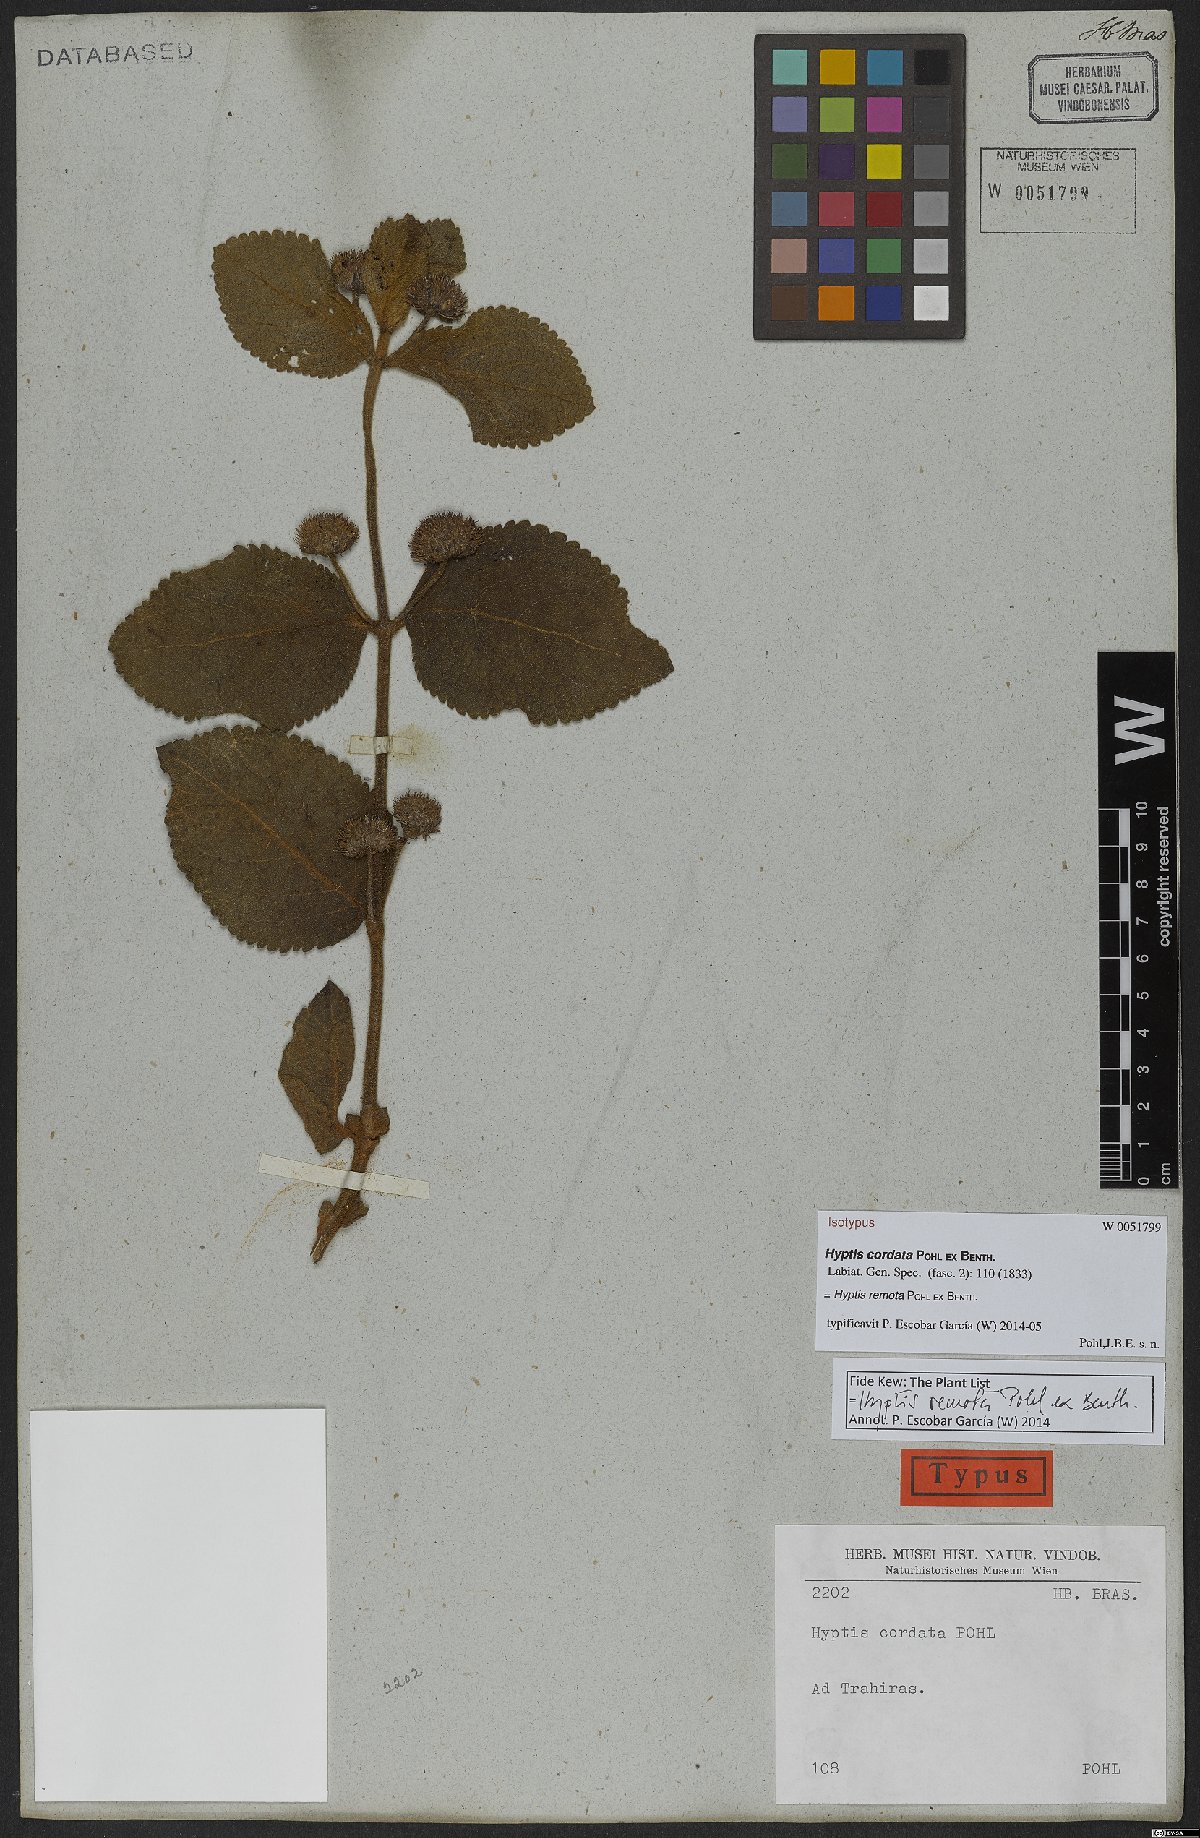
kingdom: Plantae
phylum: Tracheophyta
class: Magnoliopsida
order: Lamiales
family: Lamiaceae
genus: Hyptis
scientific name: Hyptis remota
